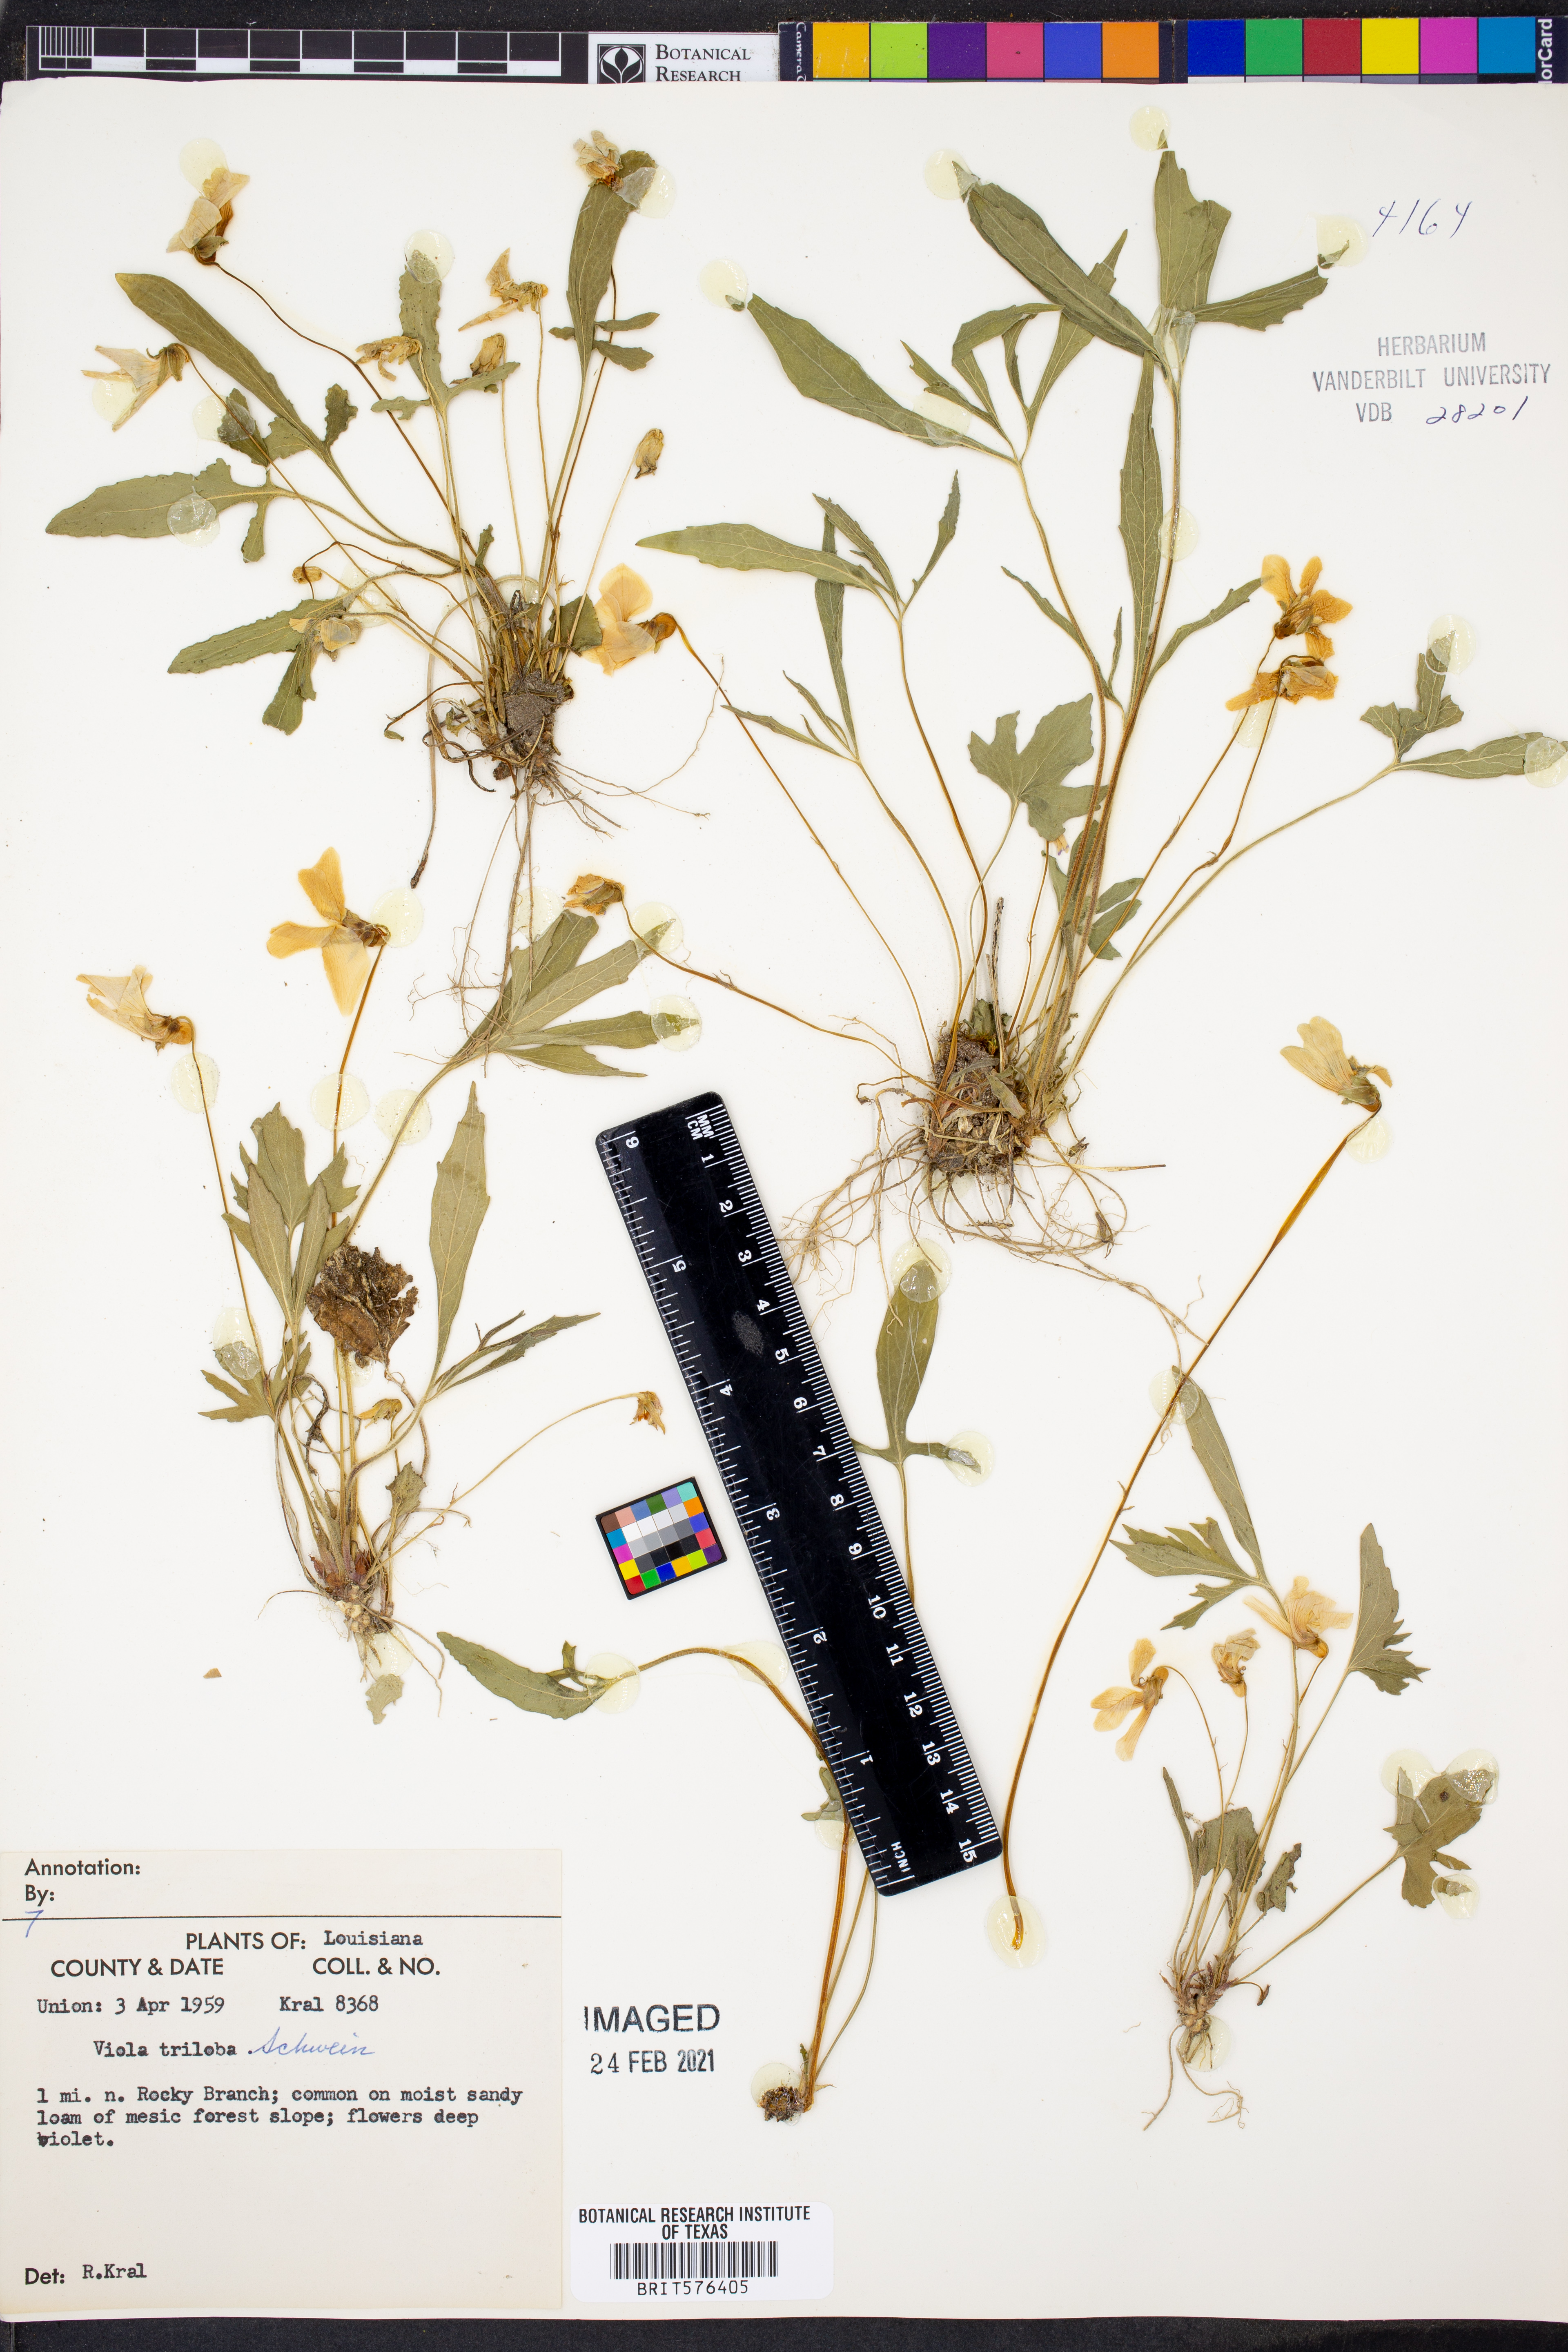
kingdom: Plantae
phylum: Tracheophyta
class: Magnoliopsida
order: Malpighiales
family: Violaceae
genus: Viola
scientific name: Viola palmata
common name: Early blue violet
